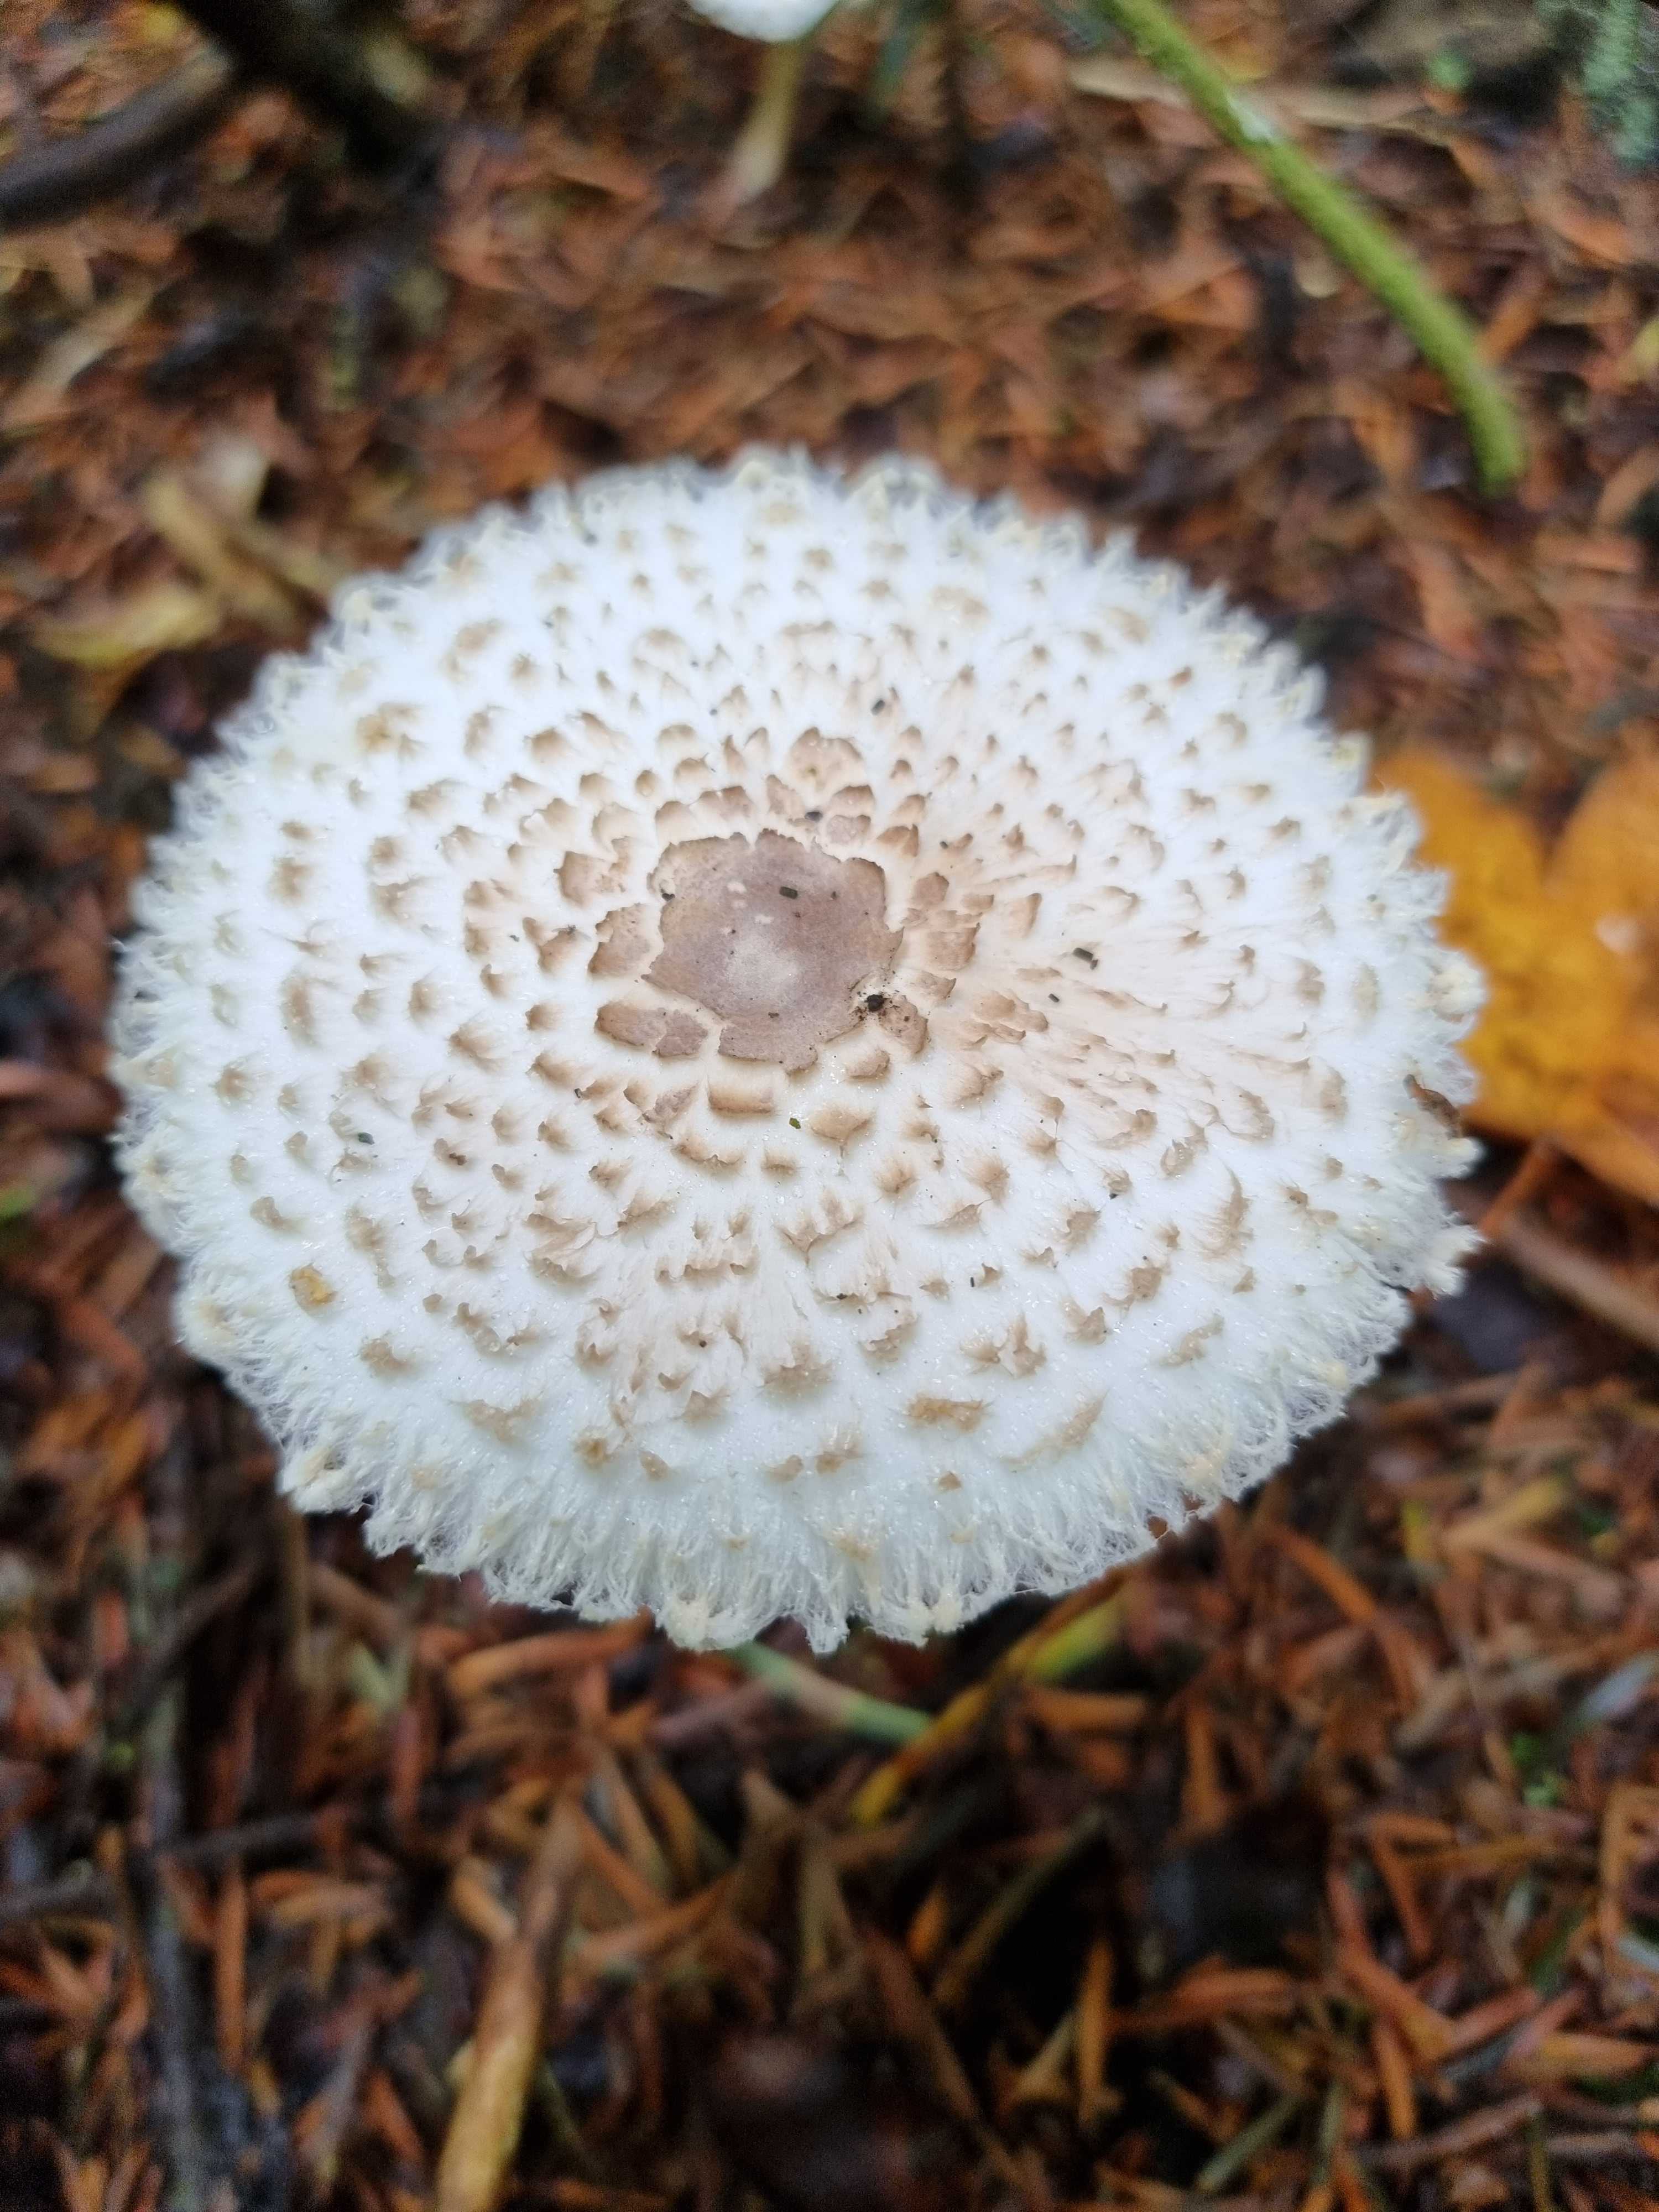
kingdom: Fungi
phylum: Basidiomycota
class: Agaricomycetes
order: Agaricales
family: Agaricaceae
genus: Leucoagaricus
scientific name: Leucoagaricus nympharum
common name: gran-silkehat
